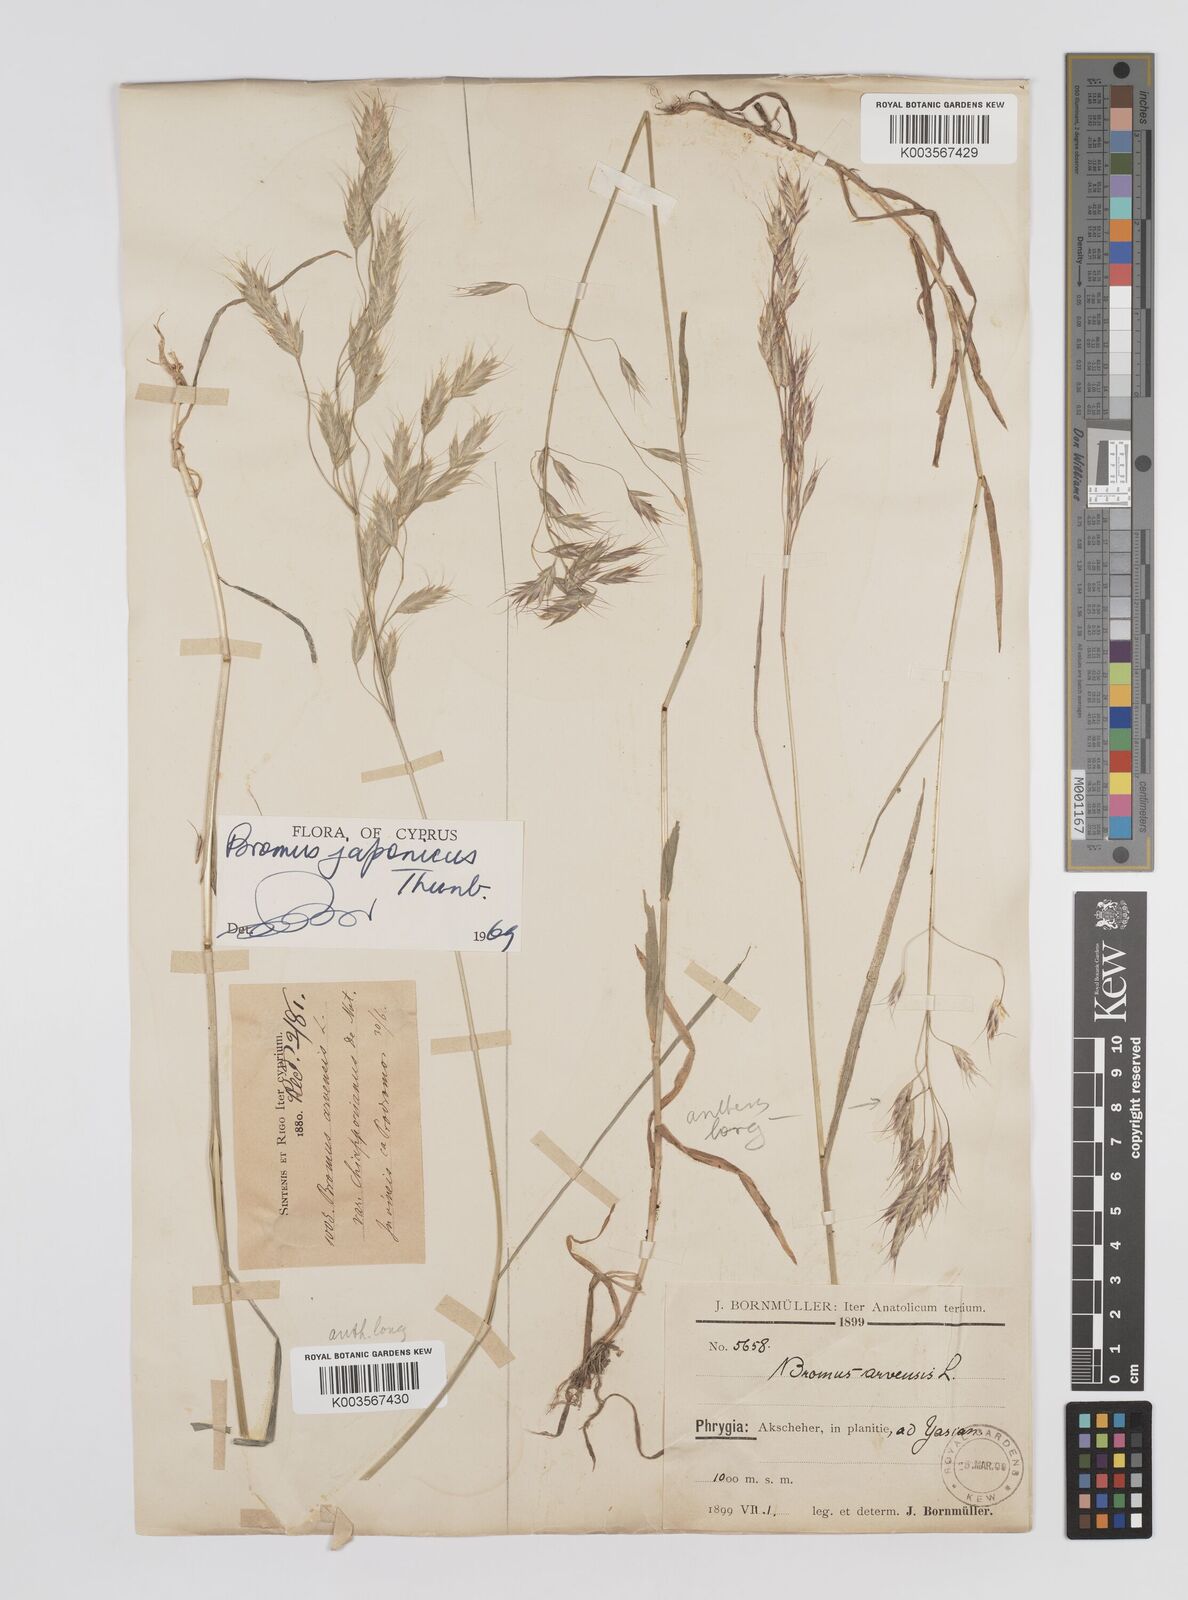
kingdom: Plantae
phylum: Tracheophyta
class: Liliopsida
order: Poales
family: Poaceae
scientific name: Poaceae
